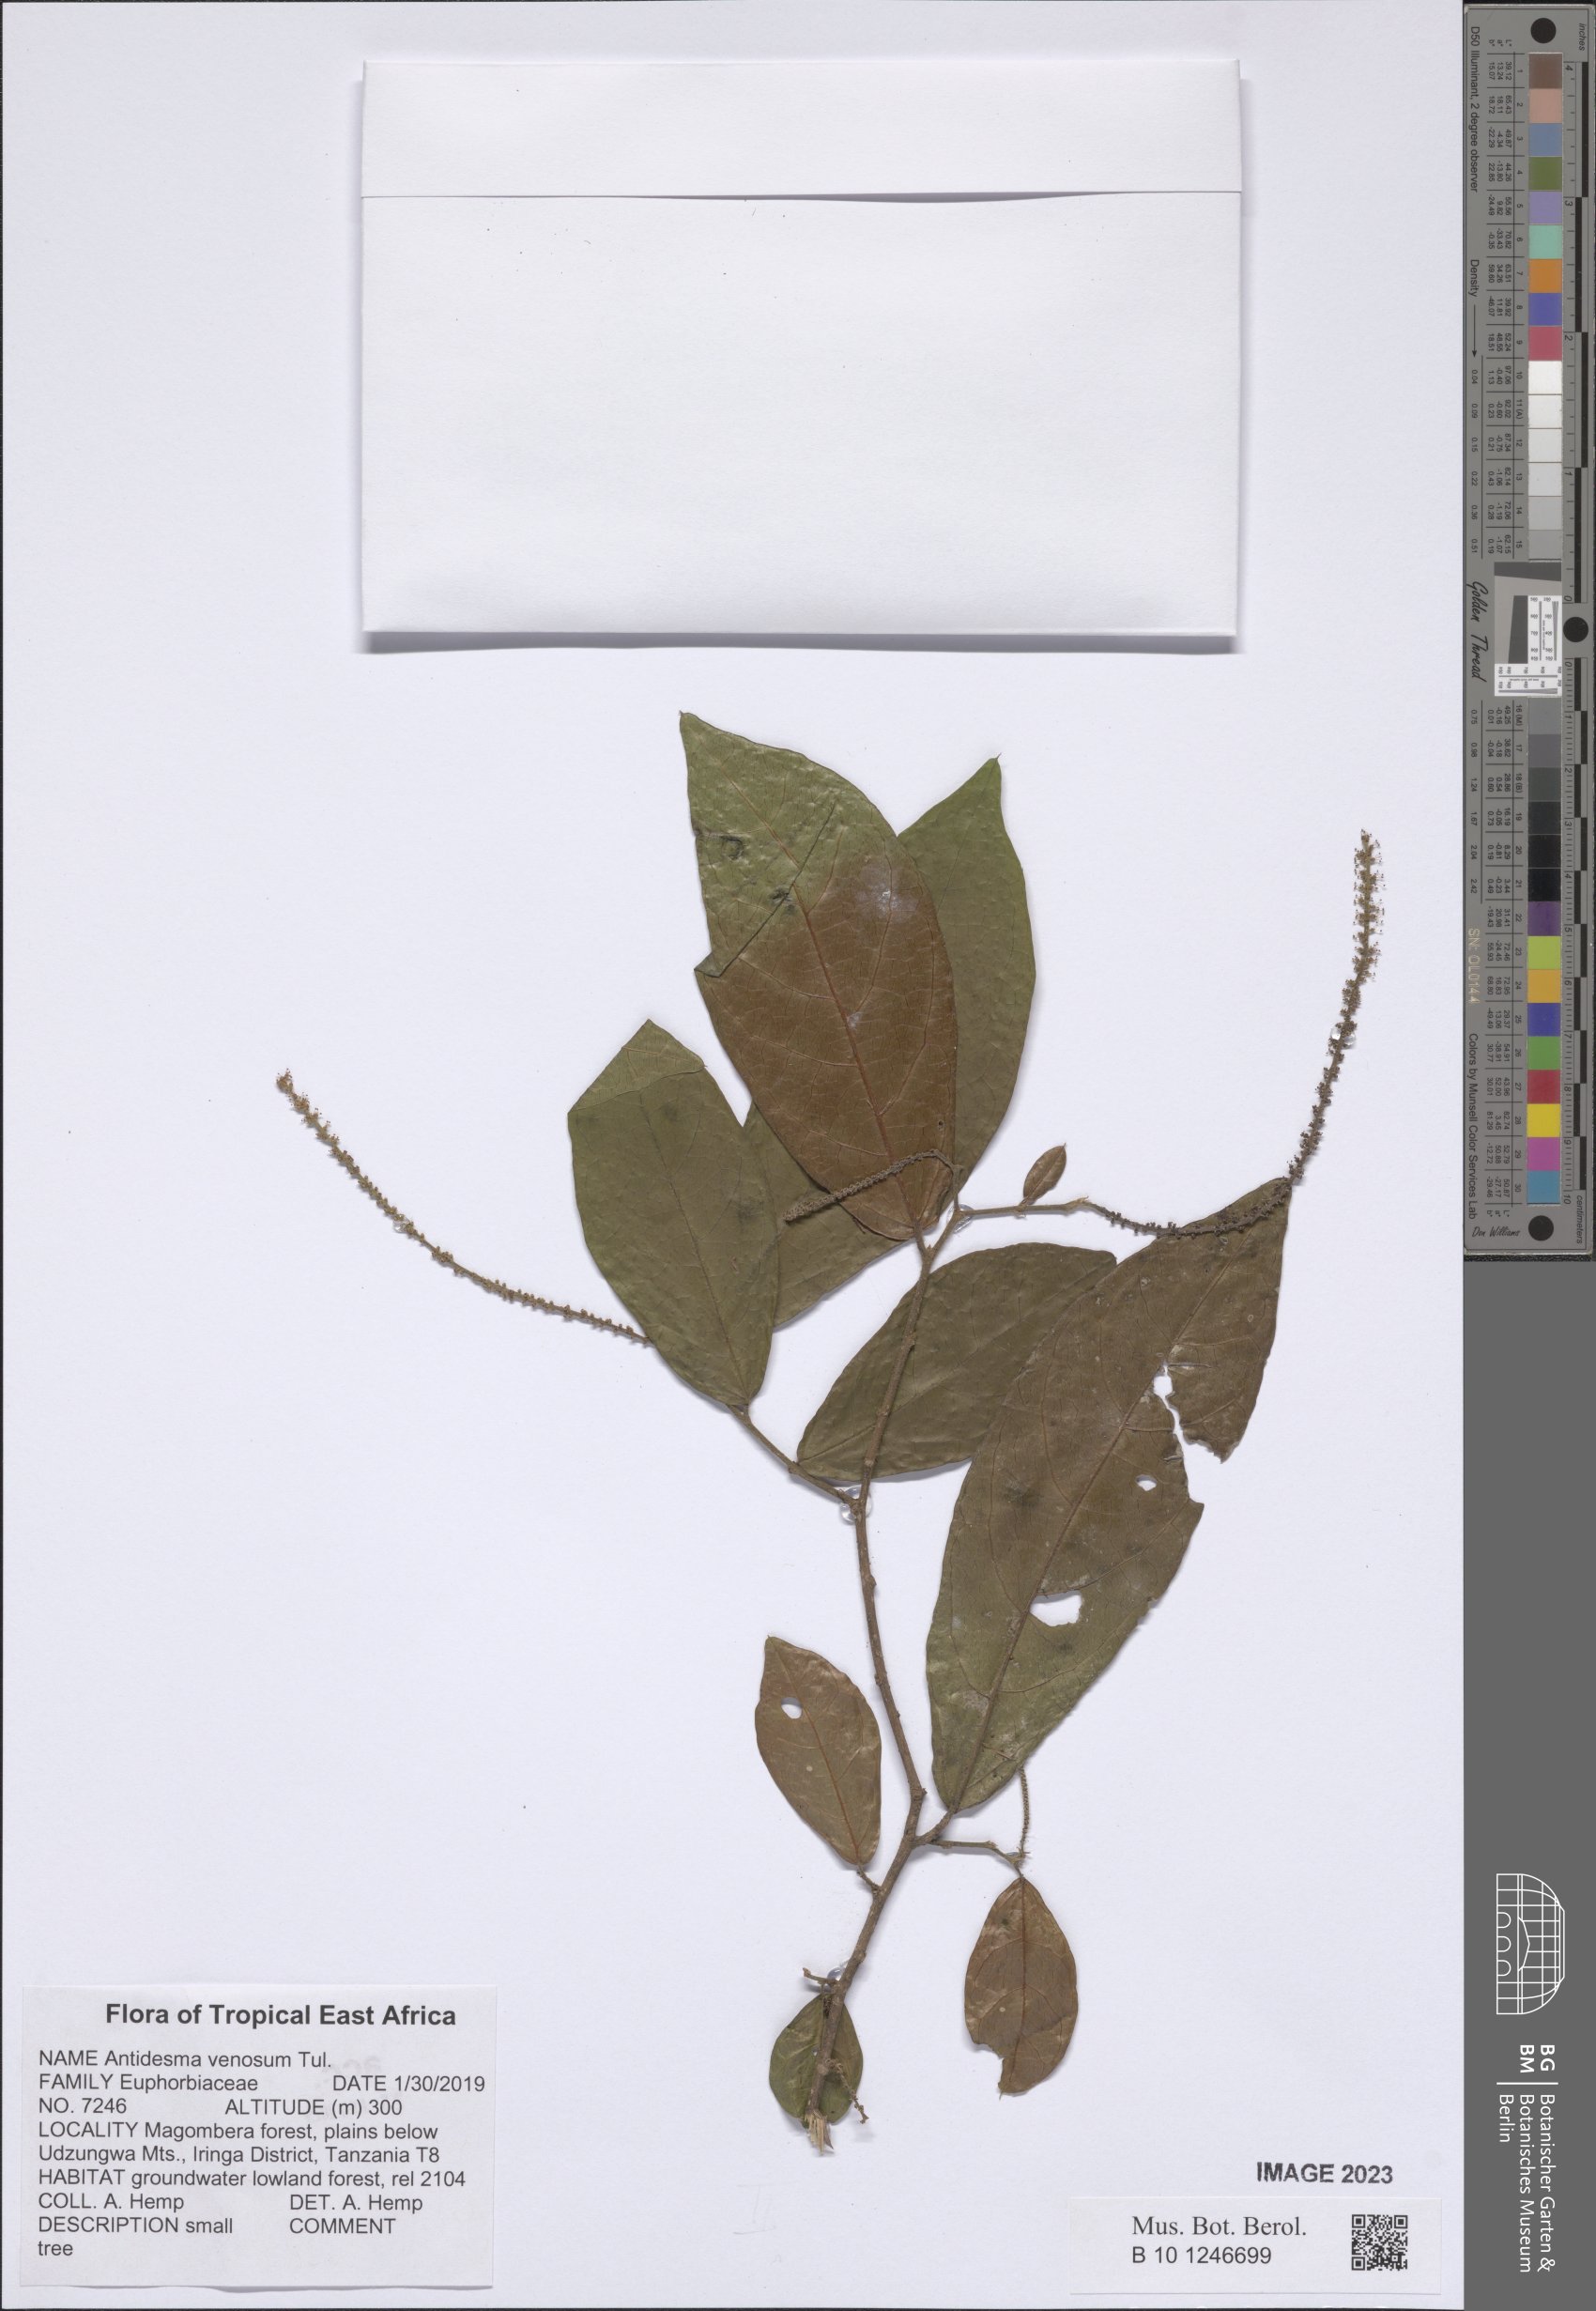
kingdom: Plantae
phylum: Tracheophyta
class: Magnoliopsida
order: Malpighiales
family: Phyllanthaceae
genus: Antidesma
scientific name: Antidesma venosum
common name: Tassel-berry
